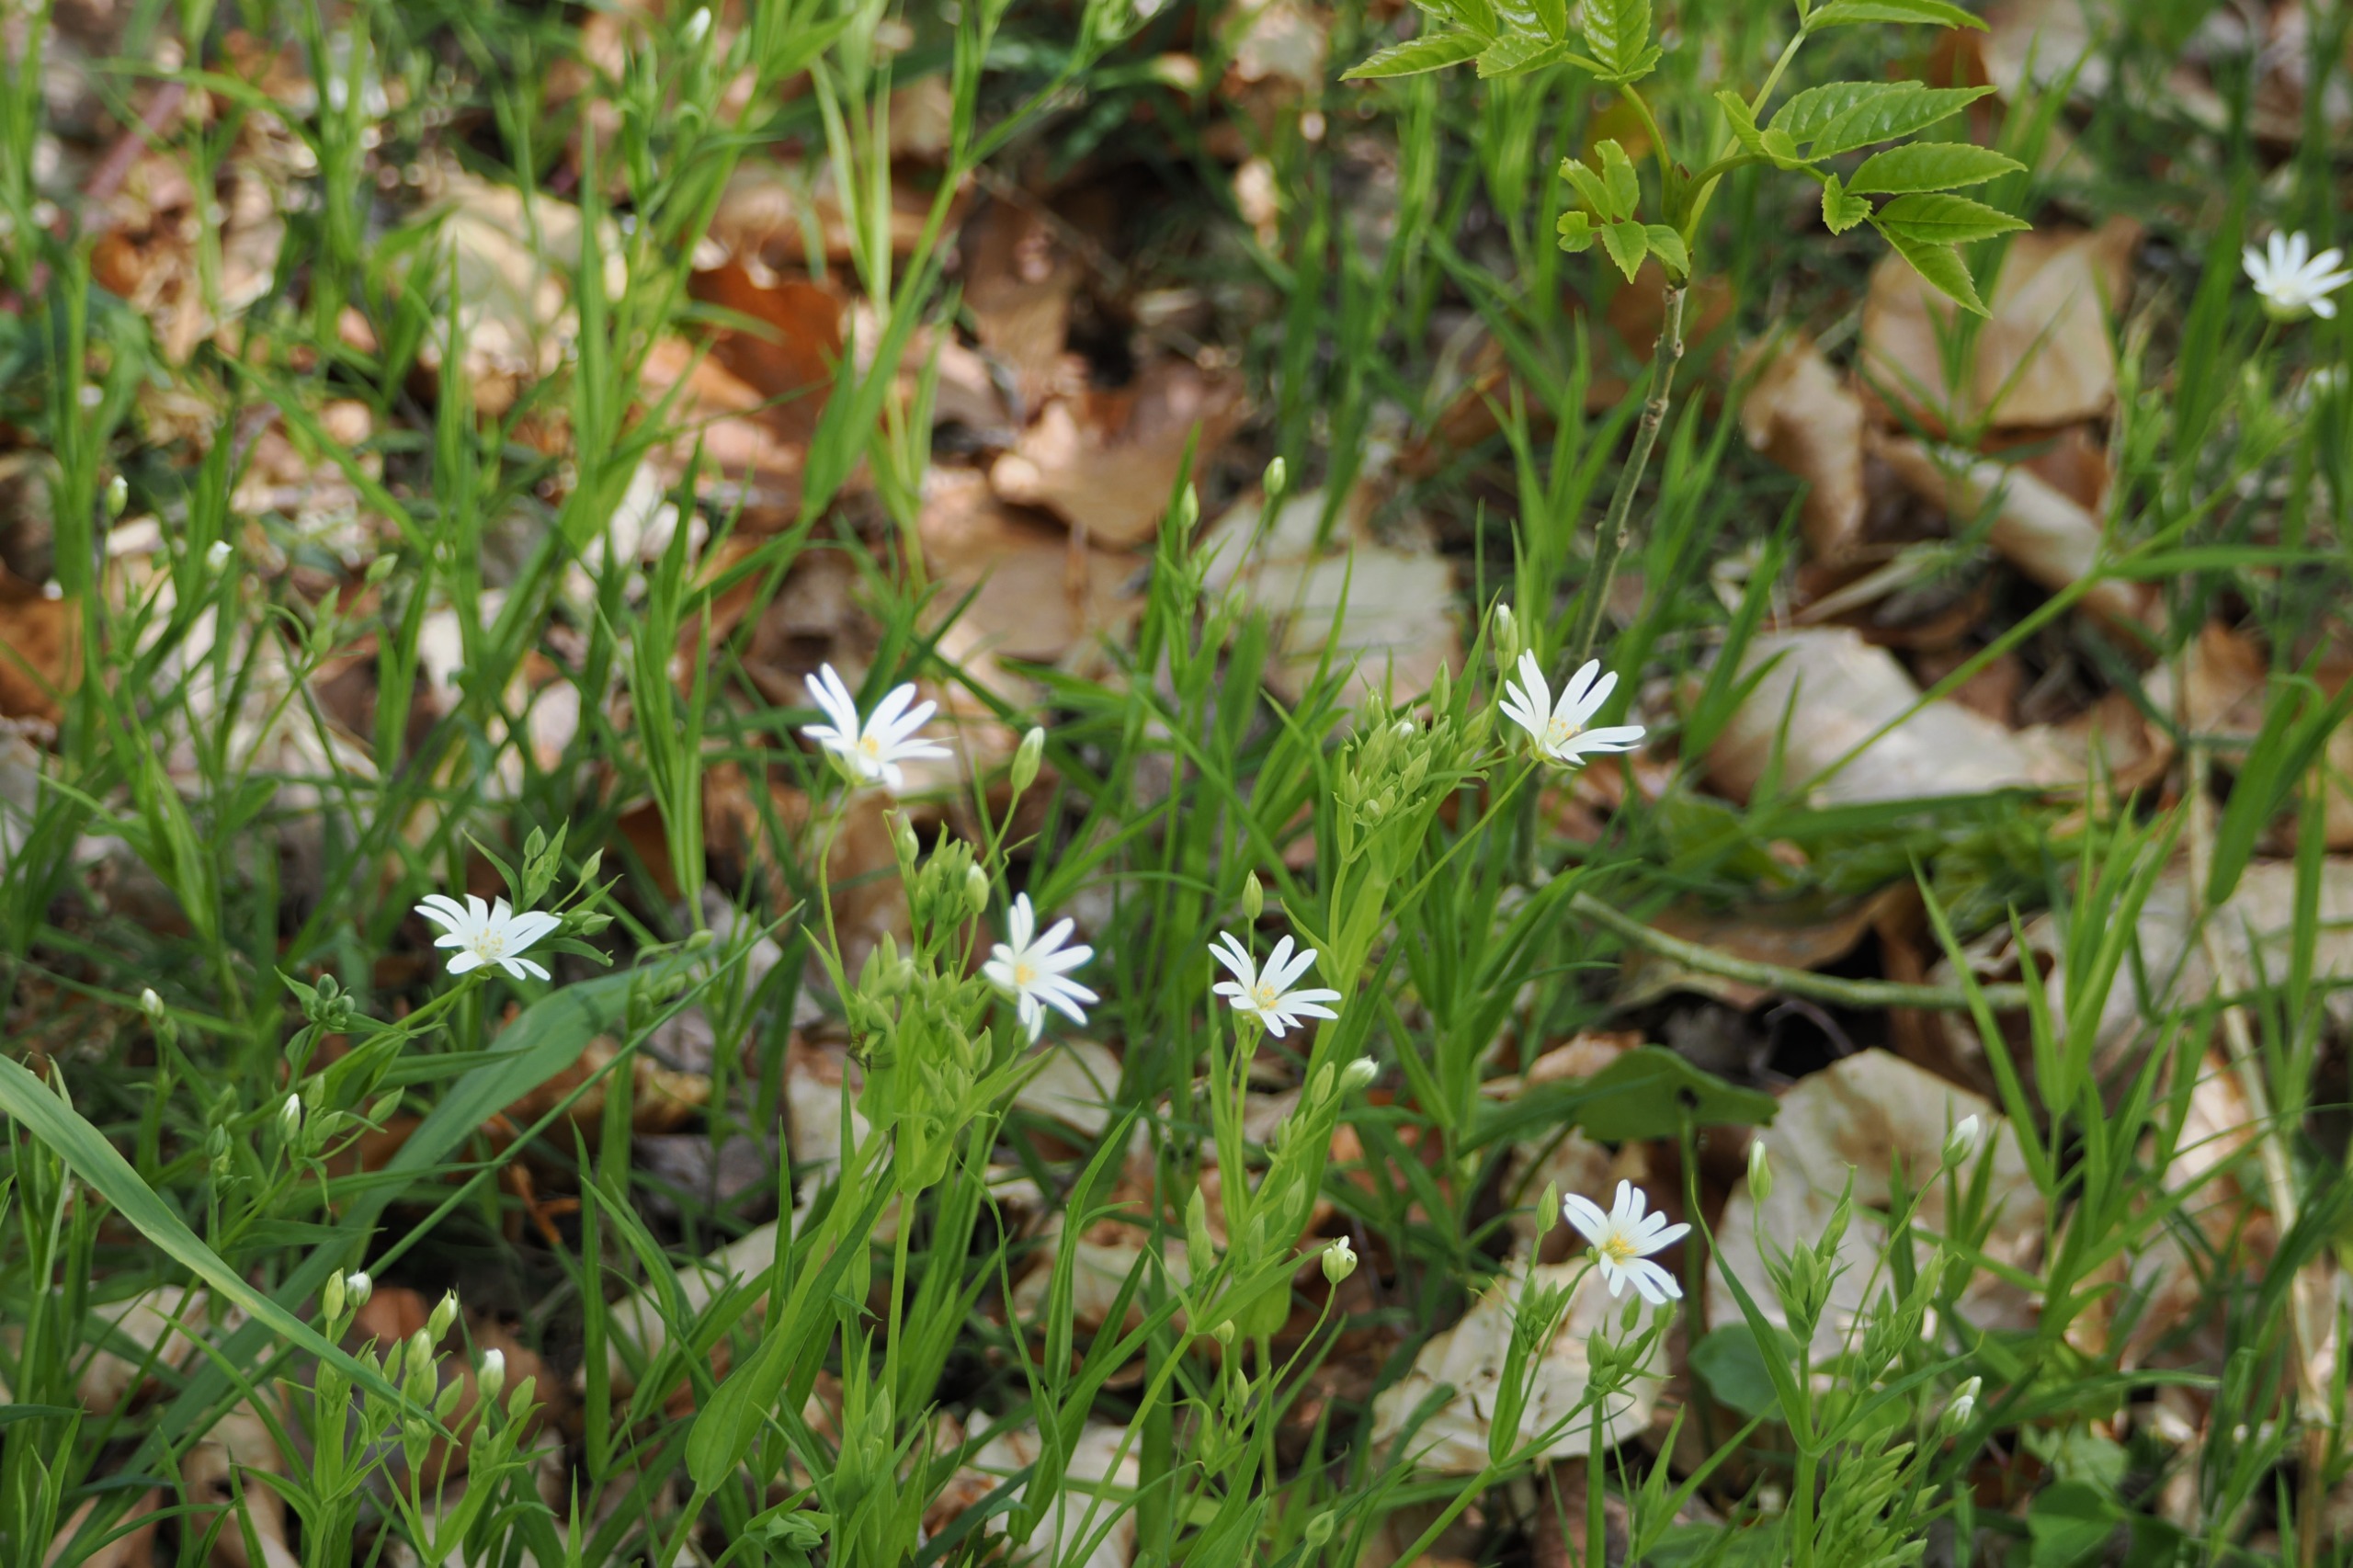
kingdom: Plantae
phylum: Tracheophyta
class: Magnoliopsida
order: Caryophyllales
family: Caryophyllaceae
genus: Rabelera
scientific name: Rabelera holostea
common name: Stor fladstjerne
